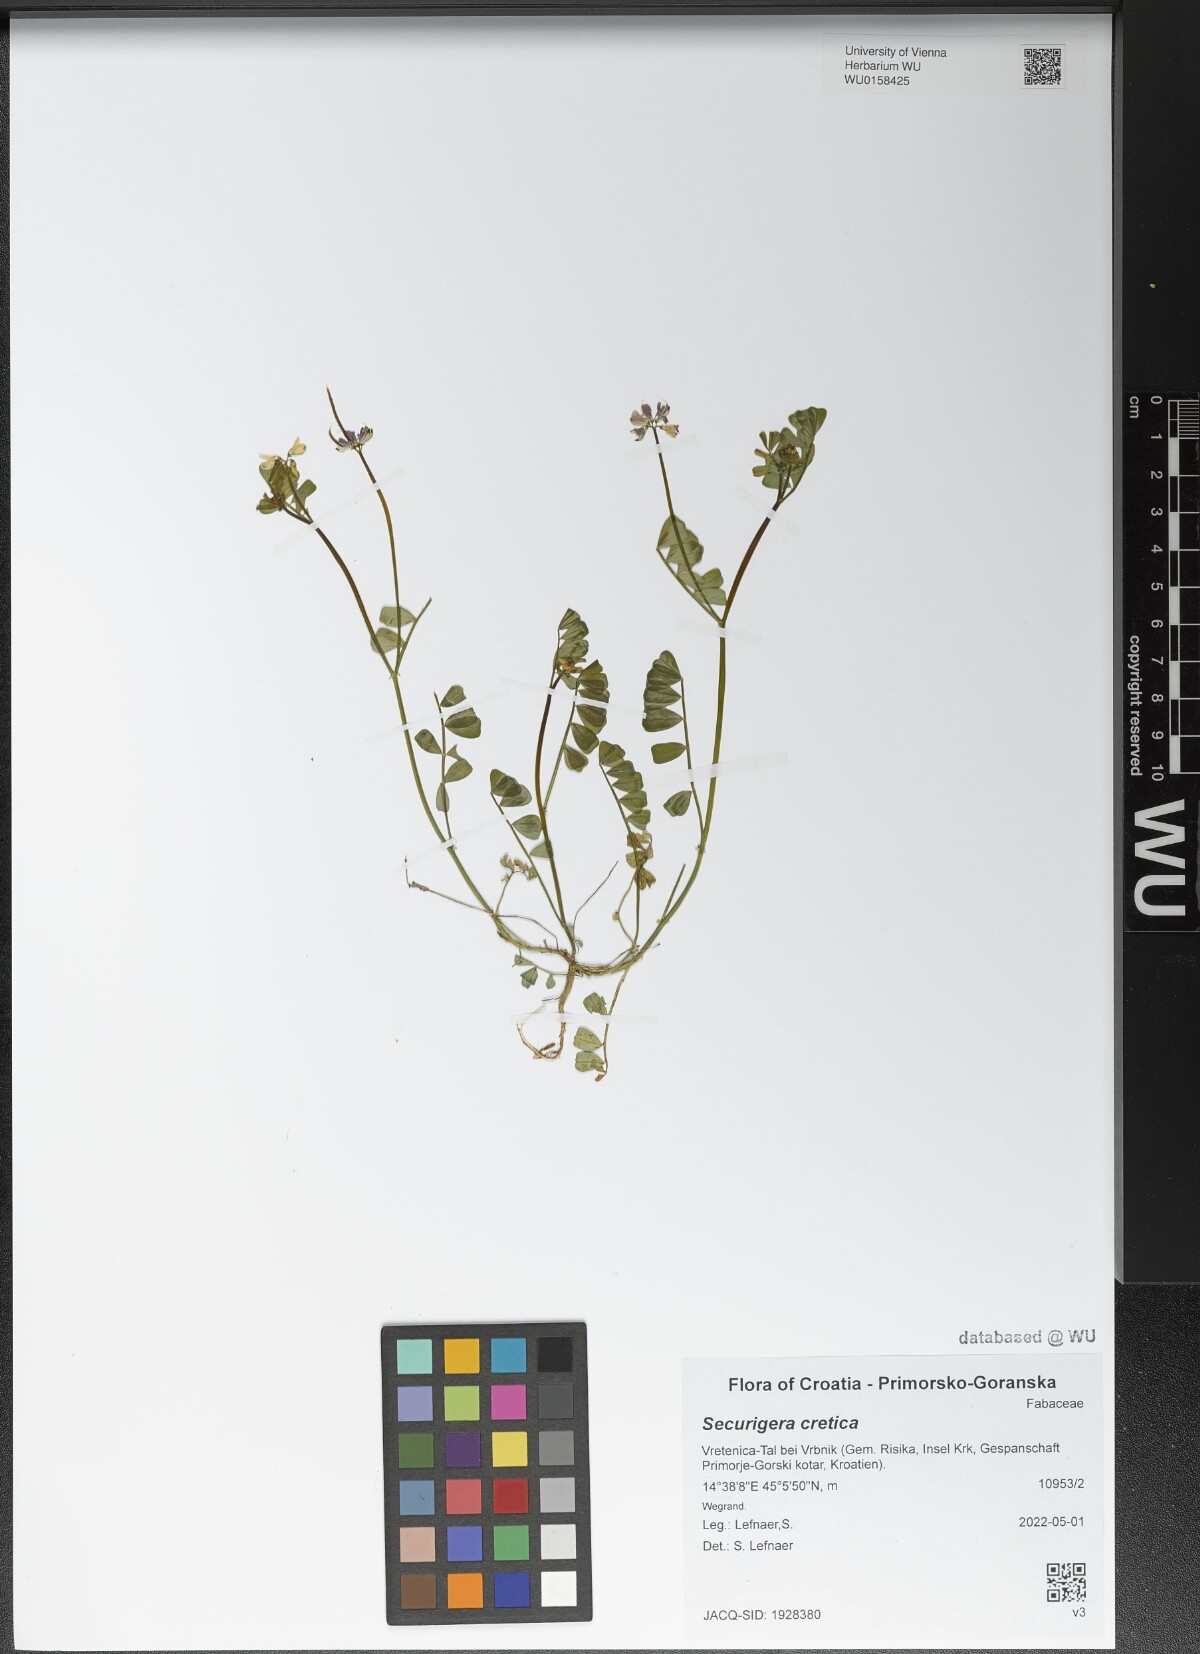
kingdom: Plantae
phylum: Tracheophyta
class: Magnoliopsida
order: Fabales
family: Fabaceae
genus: Coronilla
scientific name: Coronilla cretica
